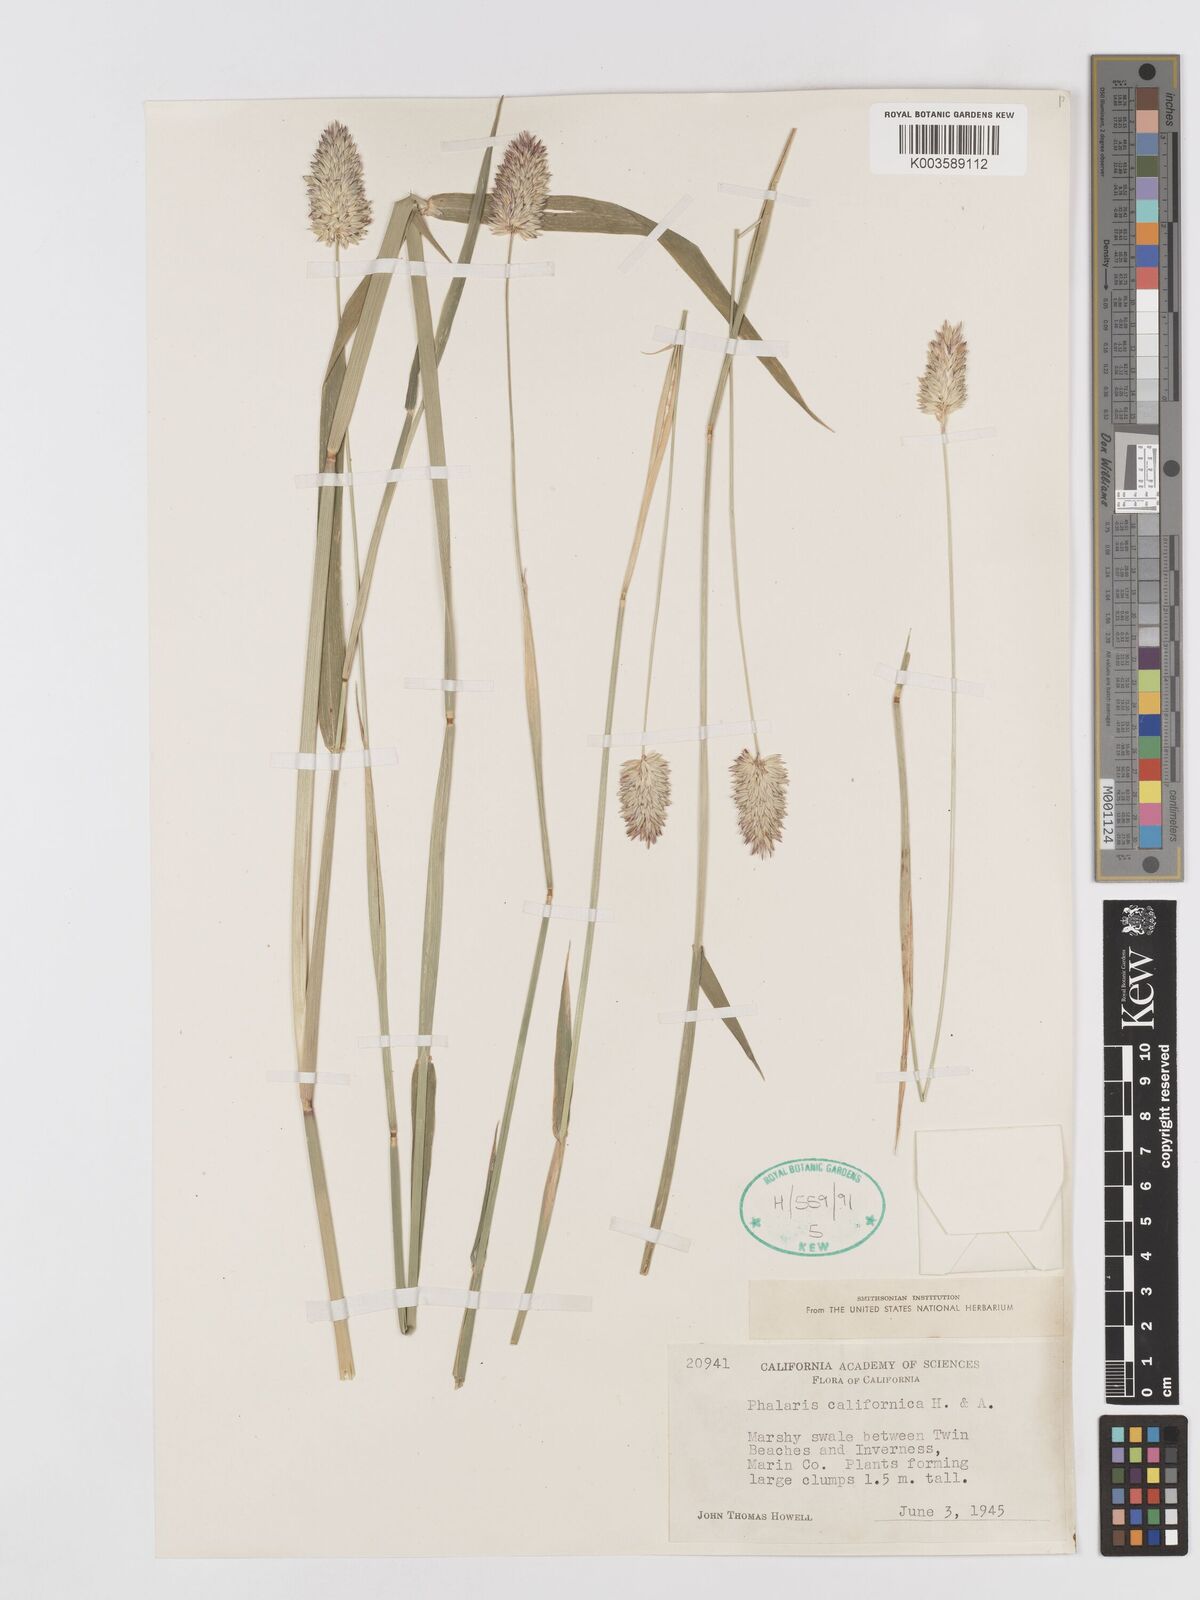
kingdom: Plantae
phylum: Tracheophyta
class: Liliopsida
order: Poales
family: Poaceae
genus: Phalaris
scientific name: Phalaris californica
